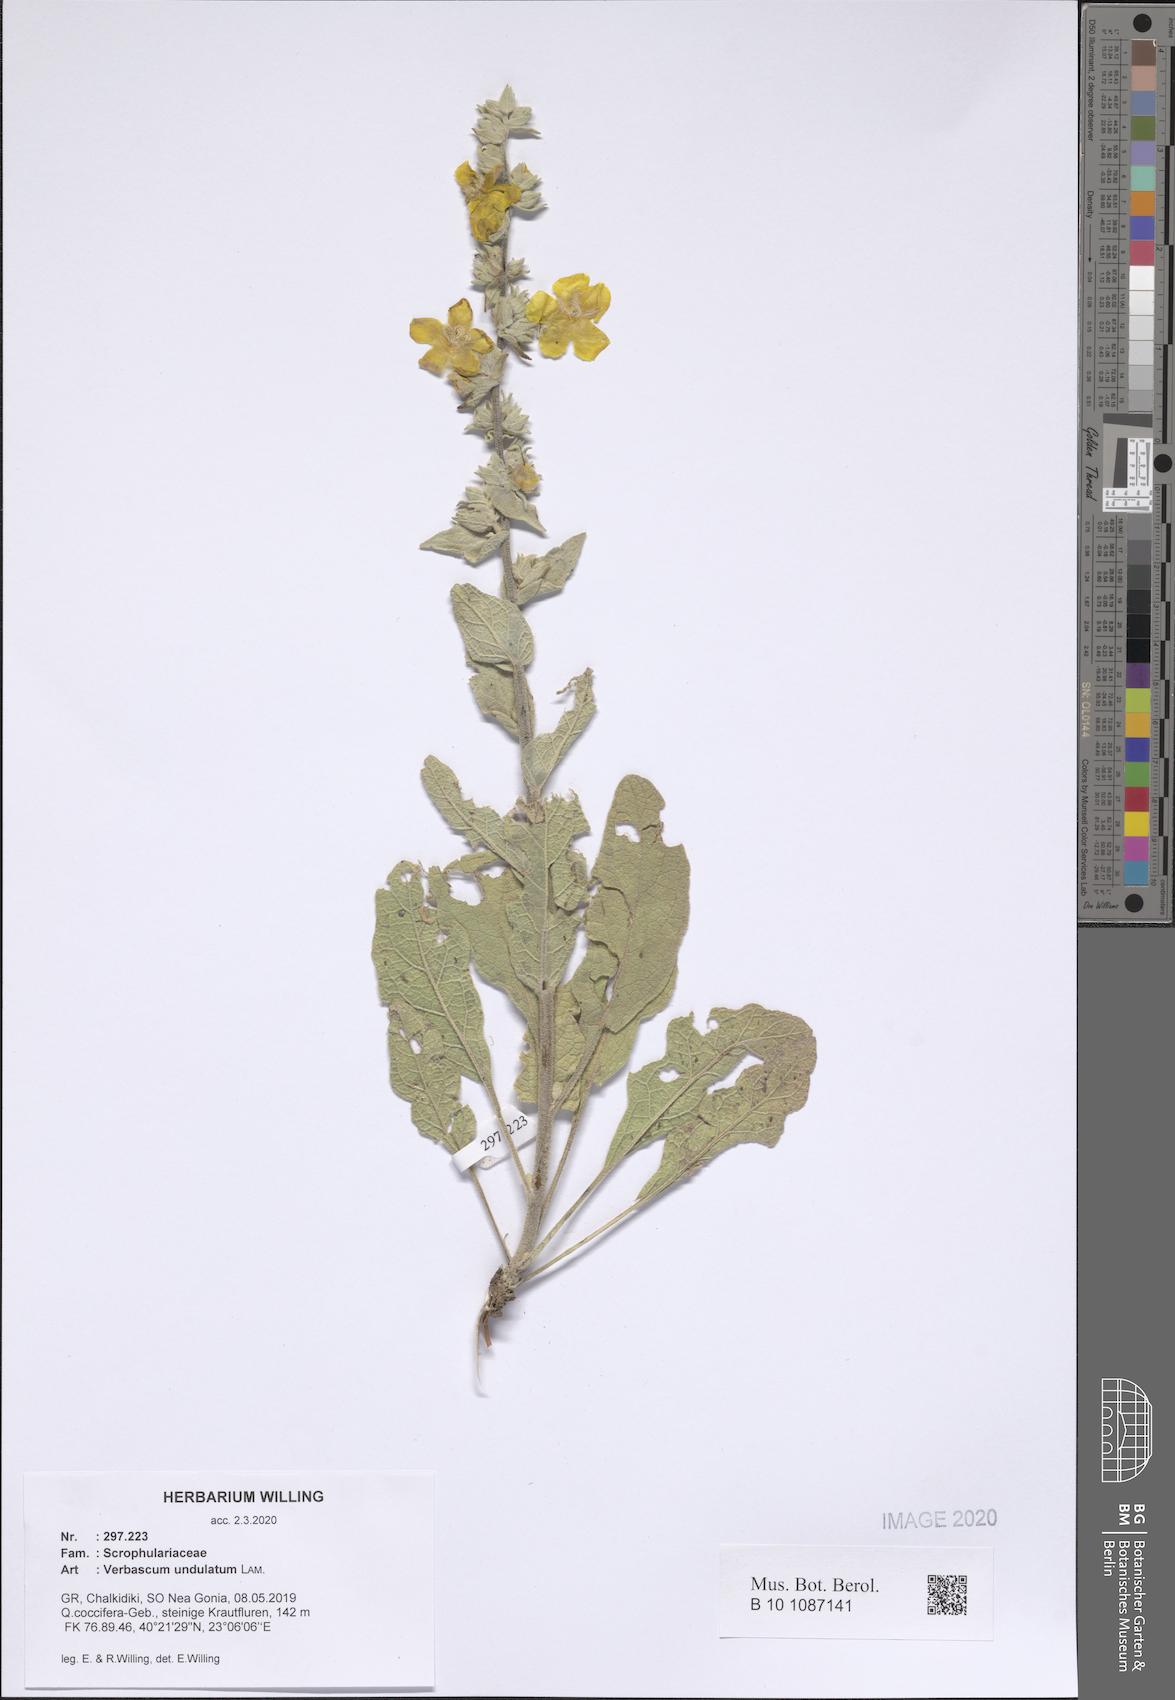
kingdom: Plantae
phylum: Tracheophyta
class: Magnoliopsida
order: Lamiales
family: Scrophulariaceae
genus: Verbascum
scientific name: Verbascum undulatum
